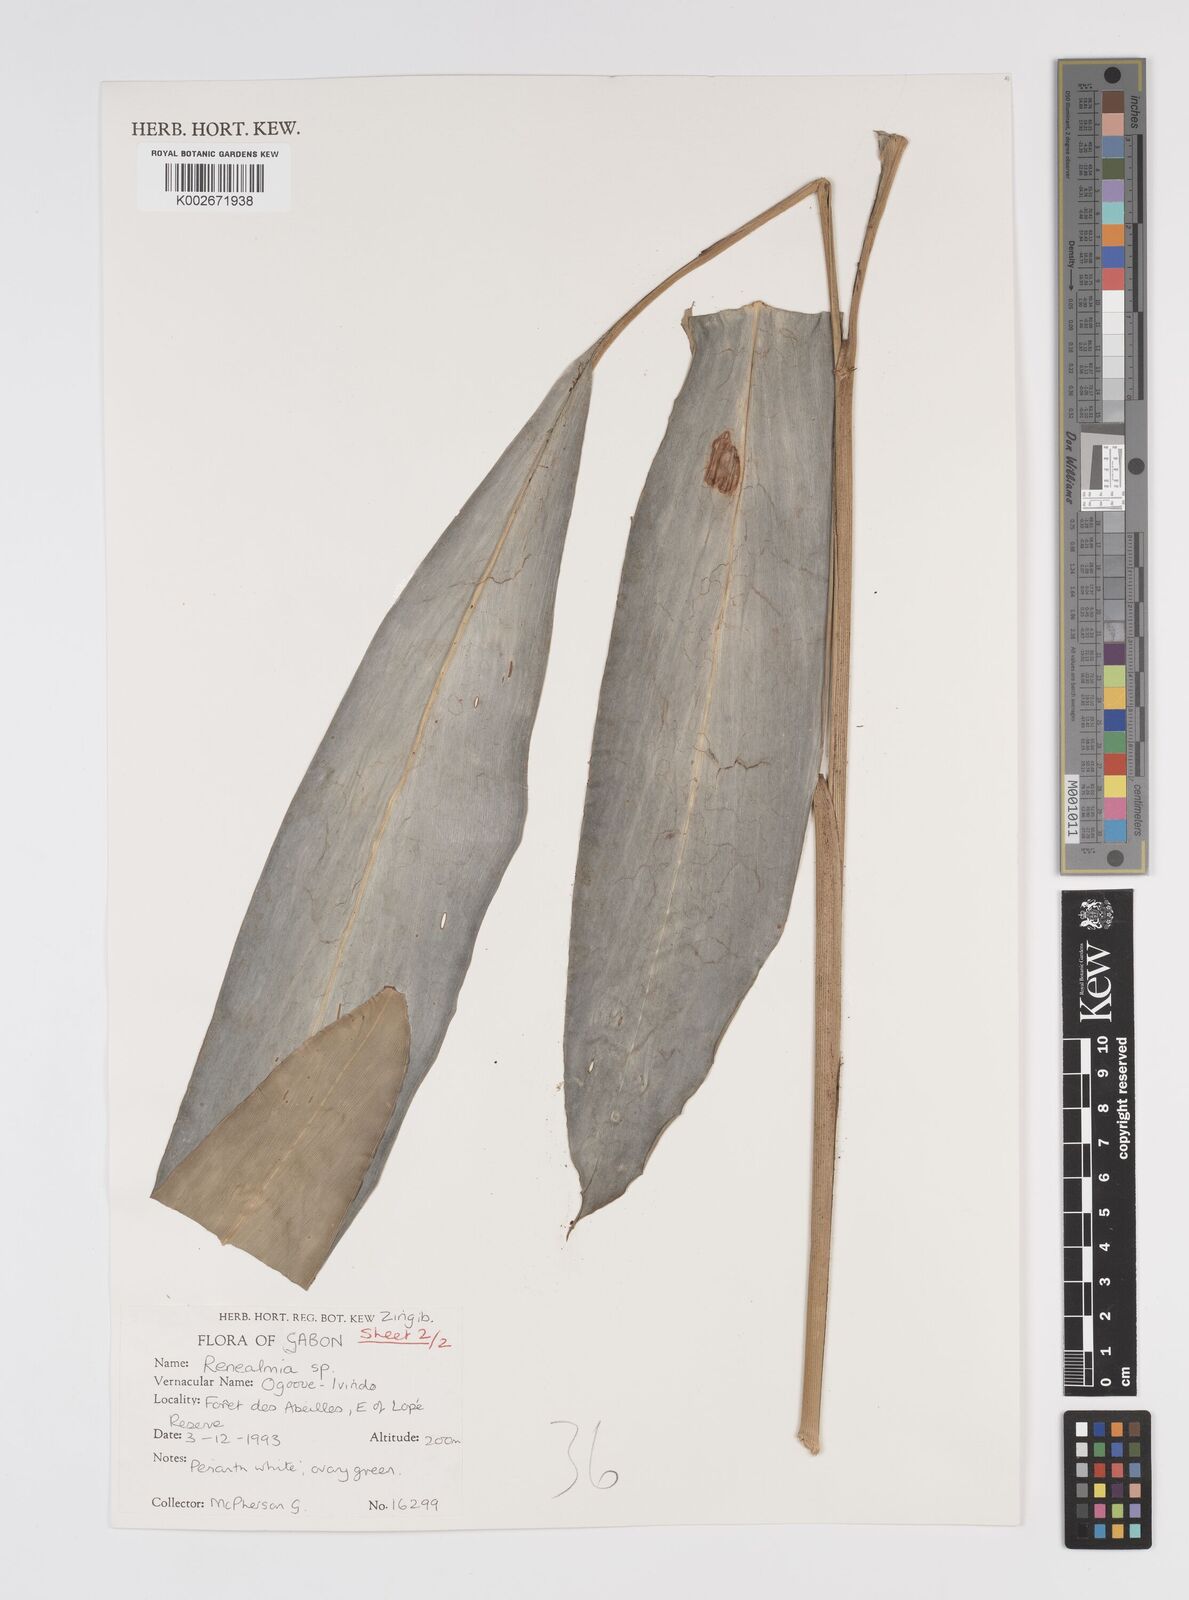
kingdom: Plantae
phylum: Tracheophyta
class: Liliopsida
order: Zingiberales
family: Zingiberaceae
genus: Renealmia
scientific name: Renealmia
